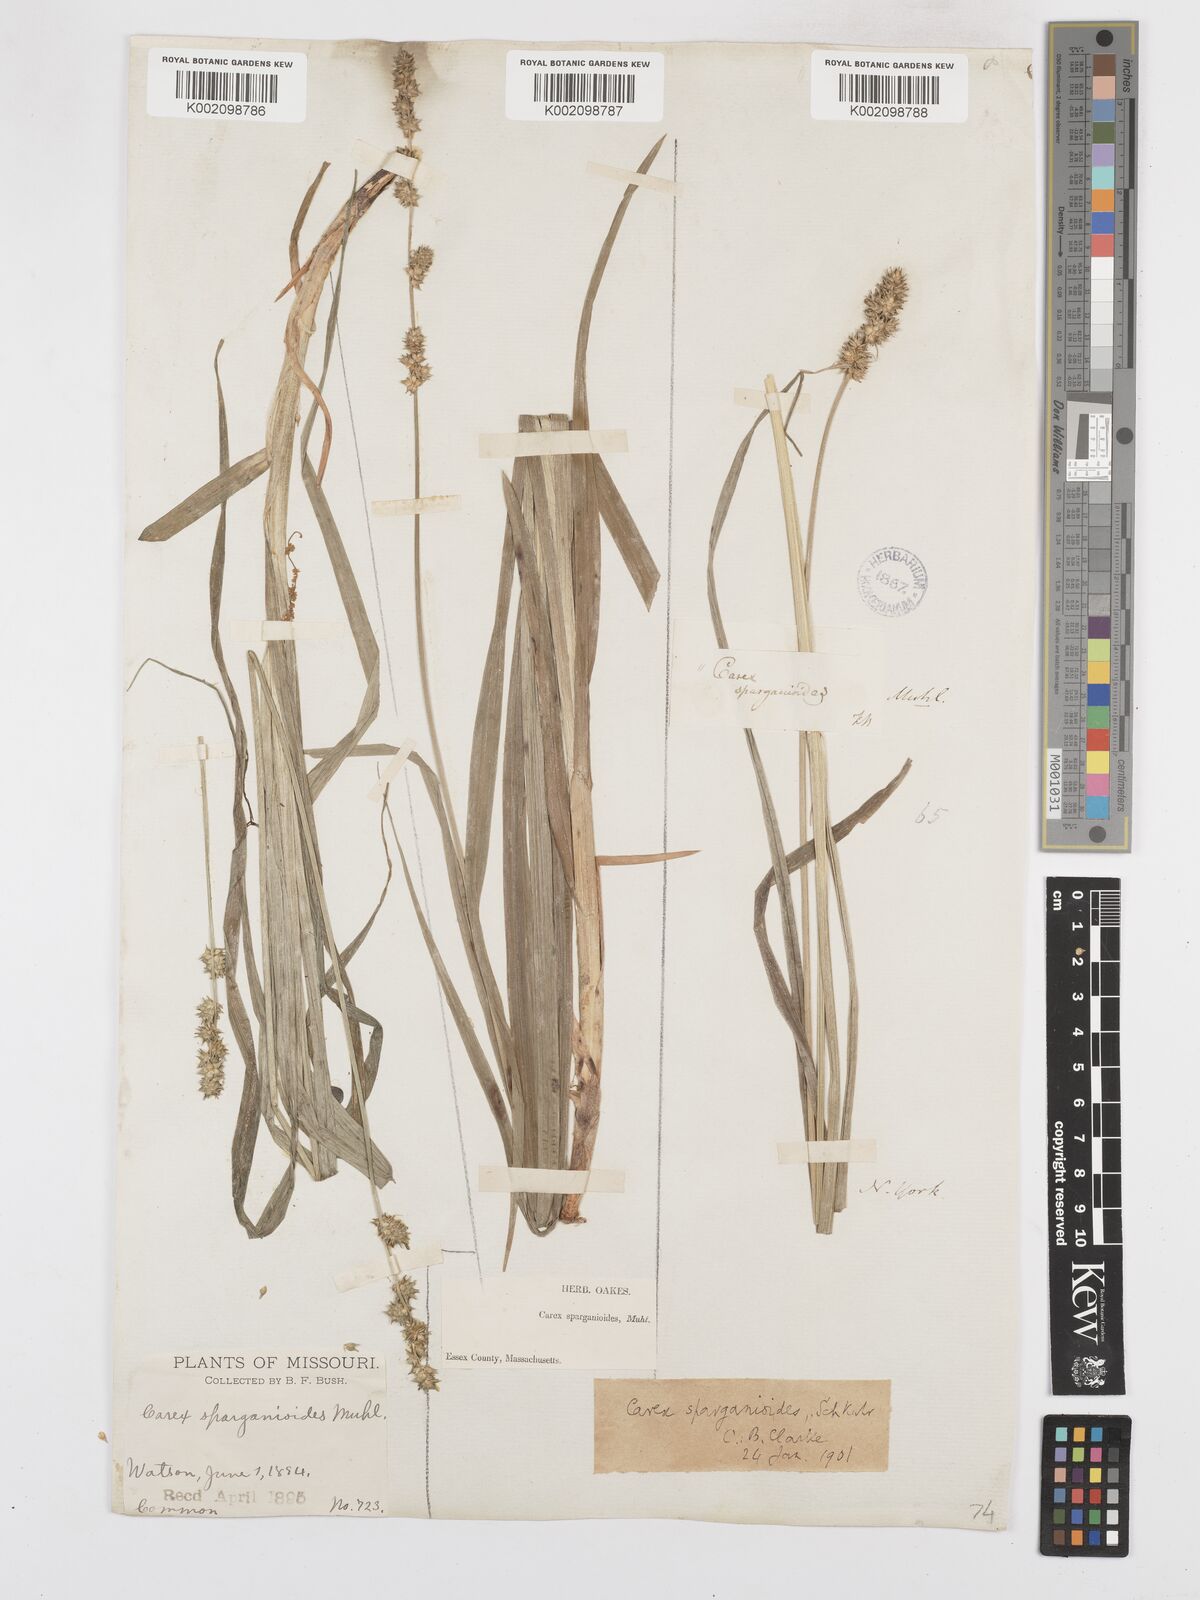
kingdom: Plantae
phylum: Tracheophyta
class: Liliopsida
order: Poales
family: Cyperaceae
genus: Carex
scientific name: Carex sparganioides
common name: Burreed sedge
